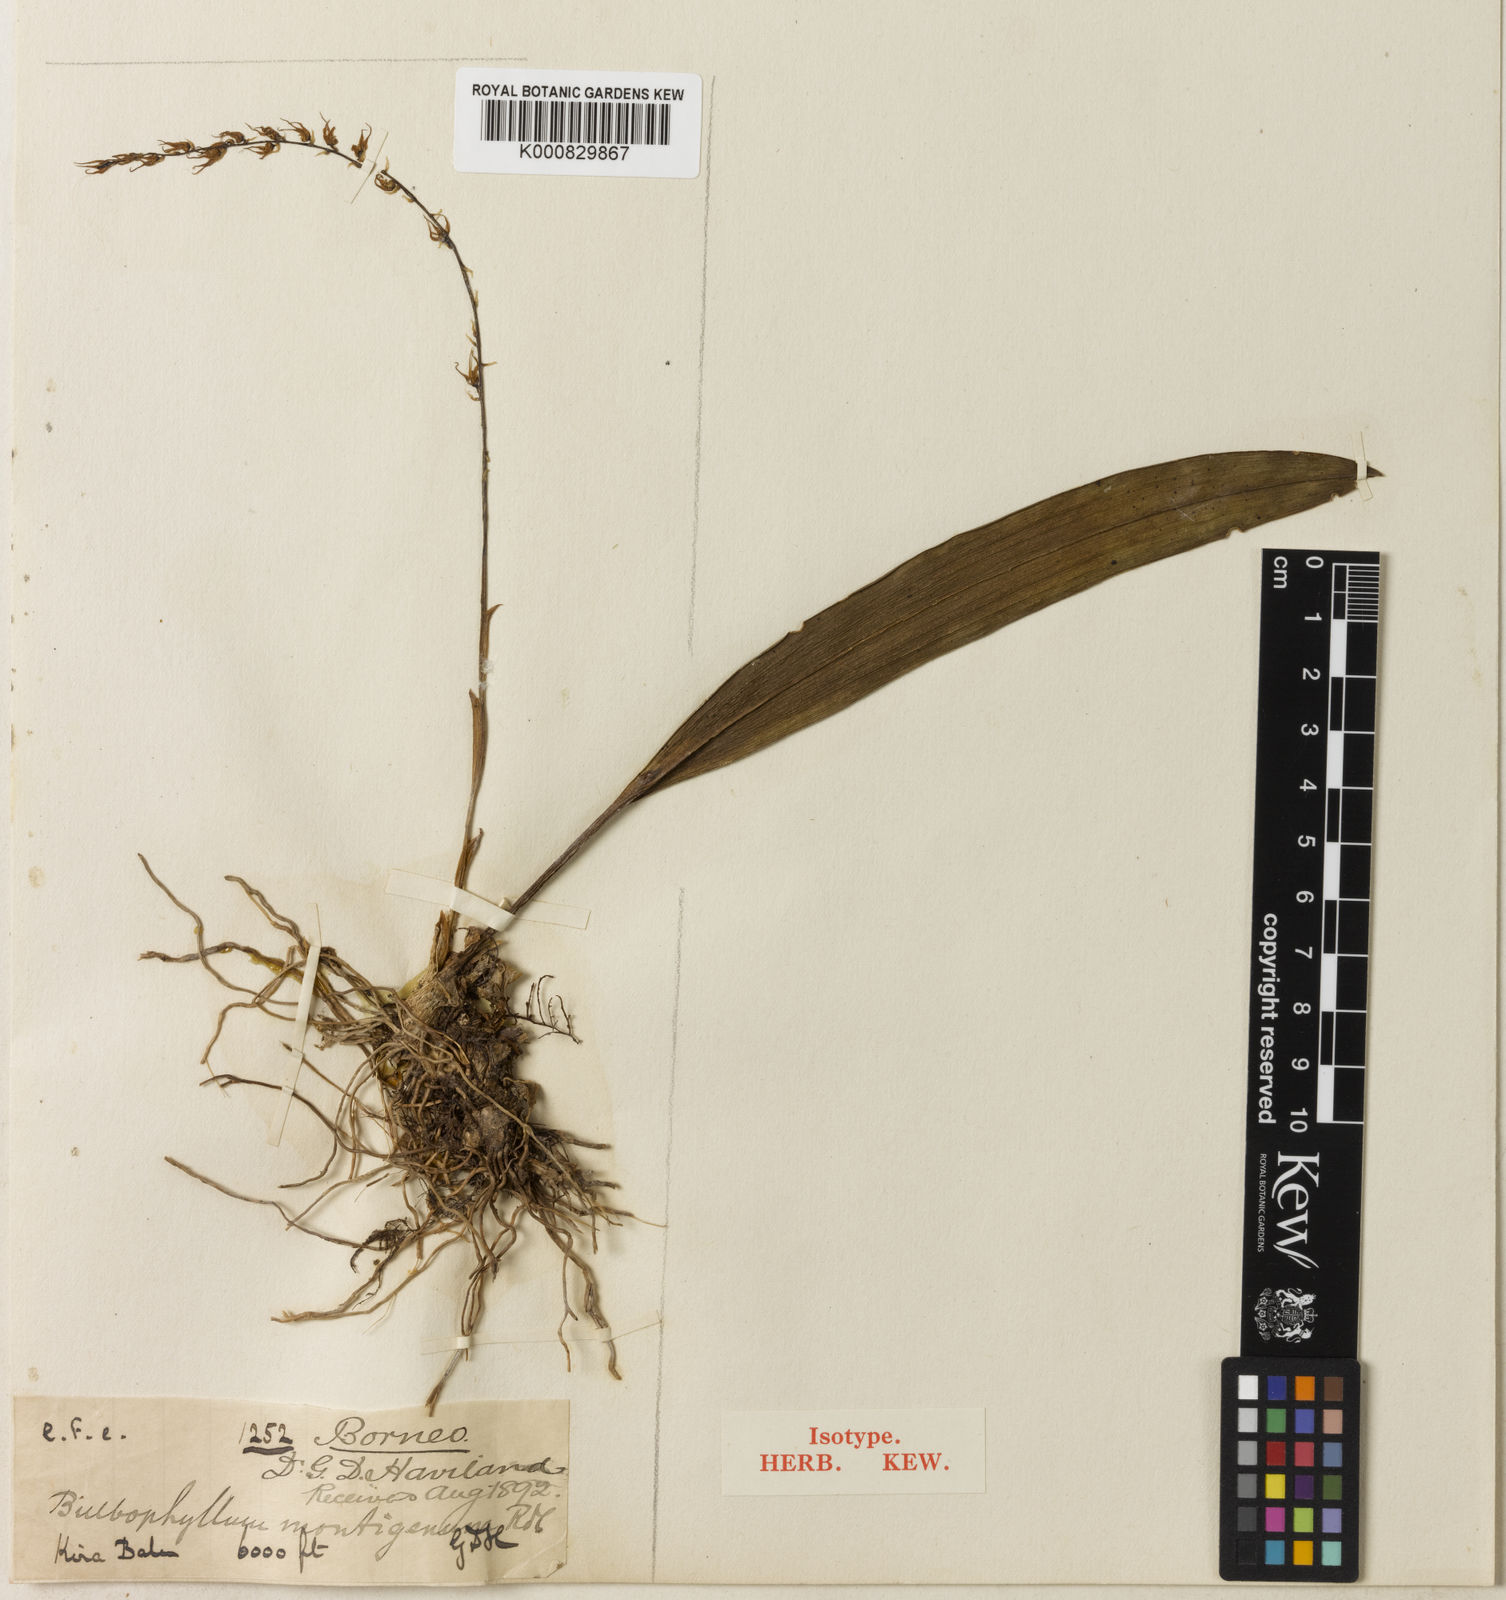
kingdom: Plantae
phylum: Tracheophyta
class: Liliopsida
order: Asparagales
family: Orchidaceae
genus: Bulbophyllum
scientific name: Bulbophyllum flavescens
